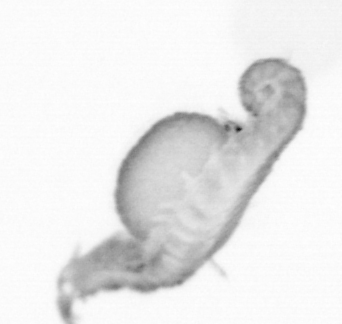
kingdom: Animalia
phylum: Annelida
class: Polychaeta
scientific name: Polychaeta
